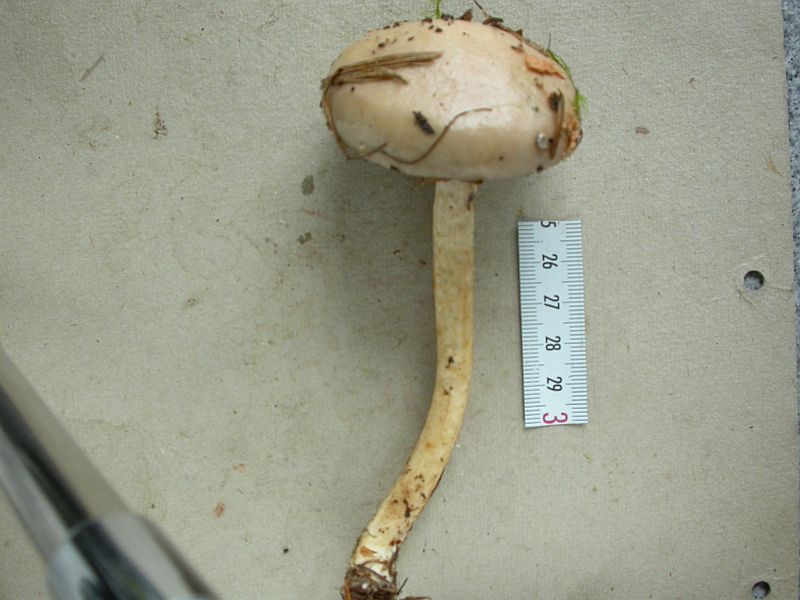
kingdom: Fungi
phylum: Basidiomycota
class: Agaricomycetes
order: Agaricales
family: Strophariaceae
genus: Stropharia
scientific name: Stropharia hornemannii
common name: nordisk bredblad
